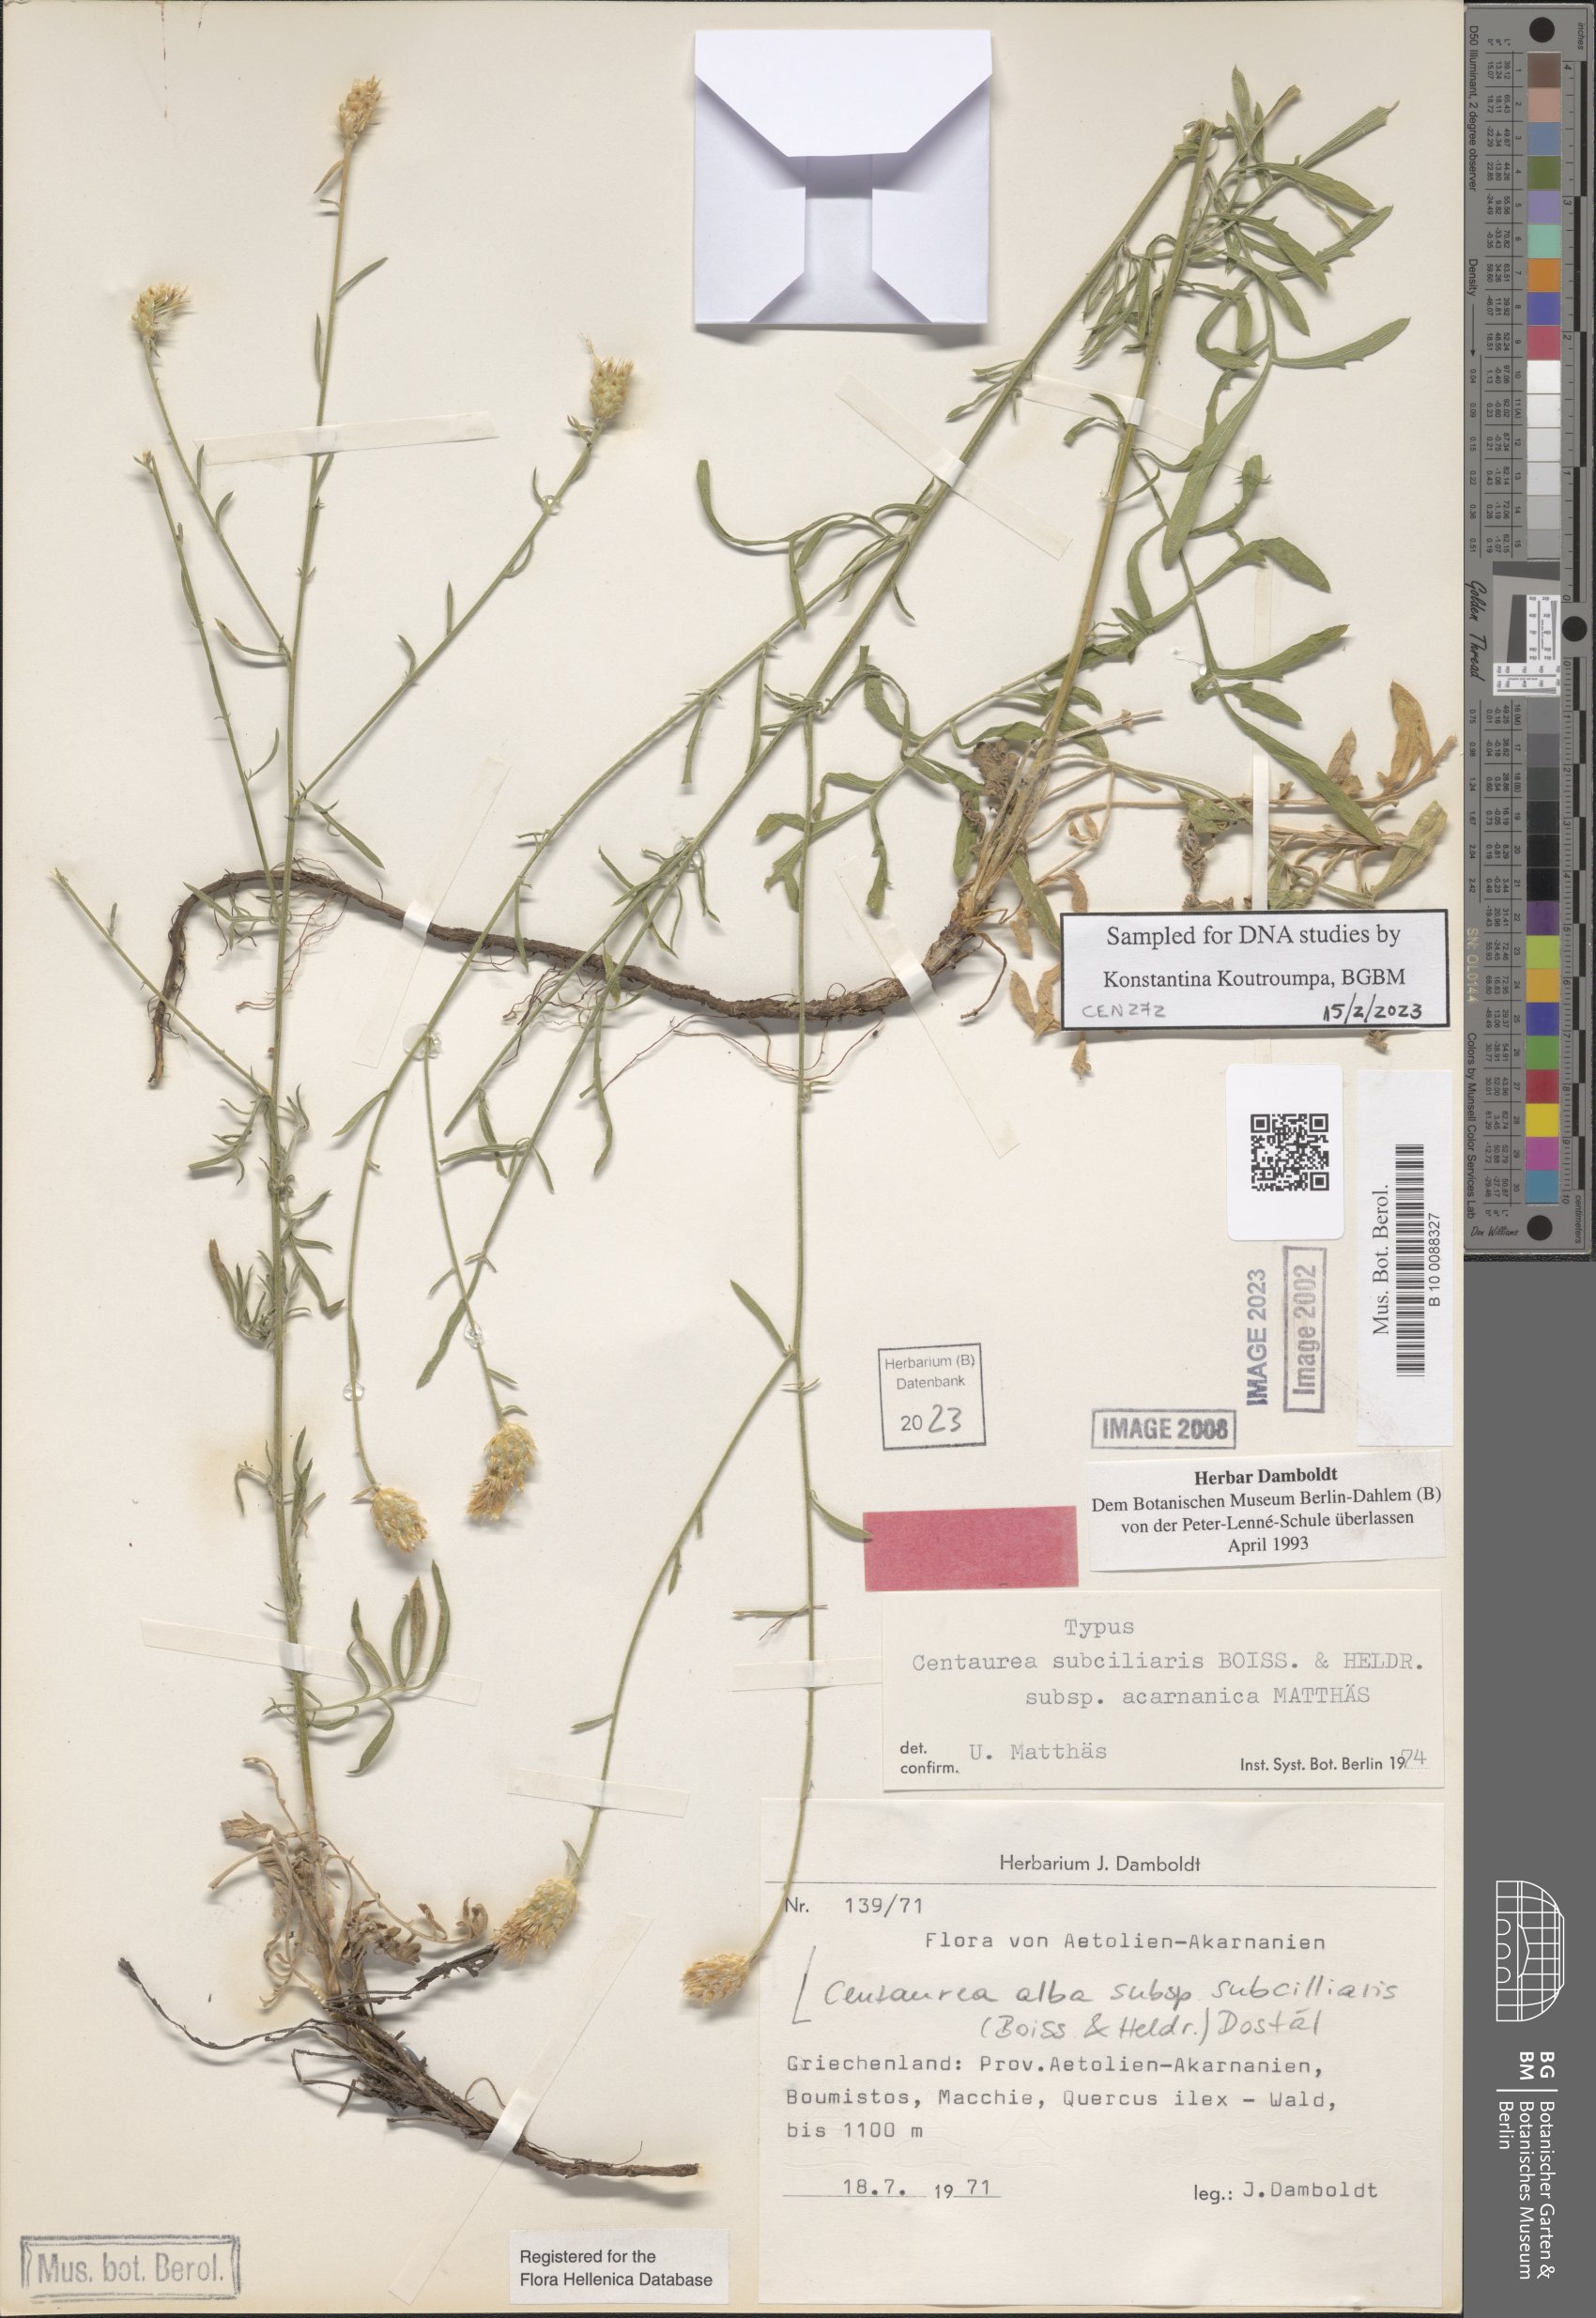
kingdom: Plantae
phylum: Tracheophyta
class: Magnoliopsida
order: Asterales
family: Asteraceae
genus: Centaurea
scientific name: Centaurea subciliaris
